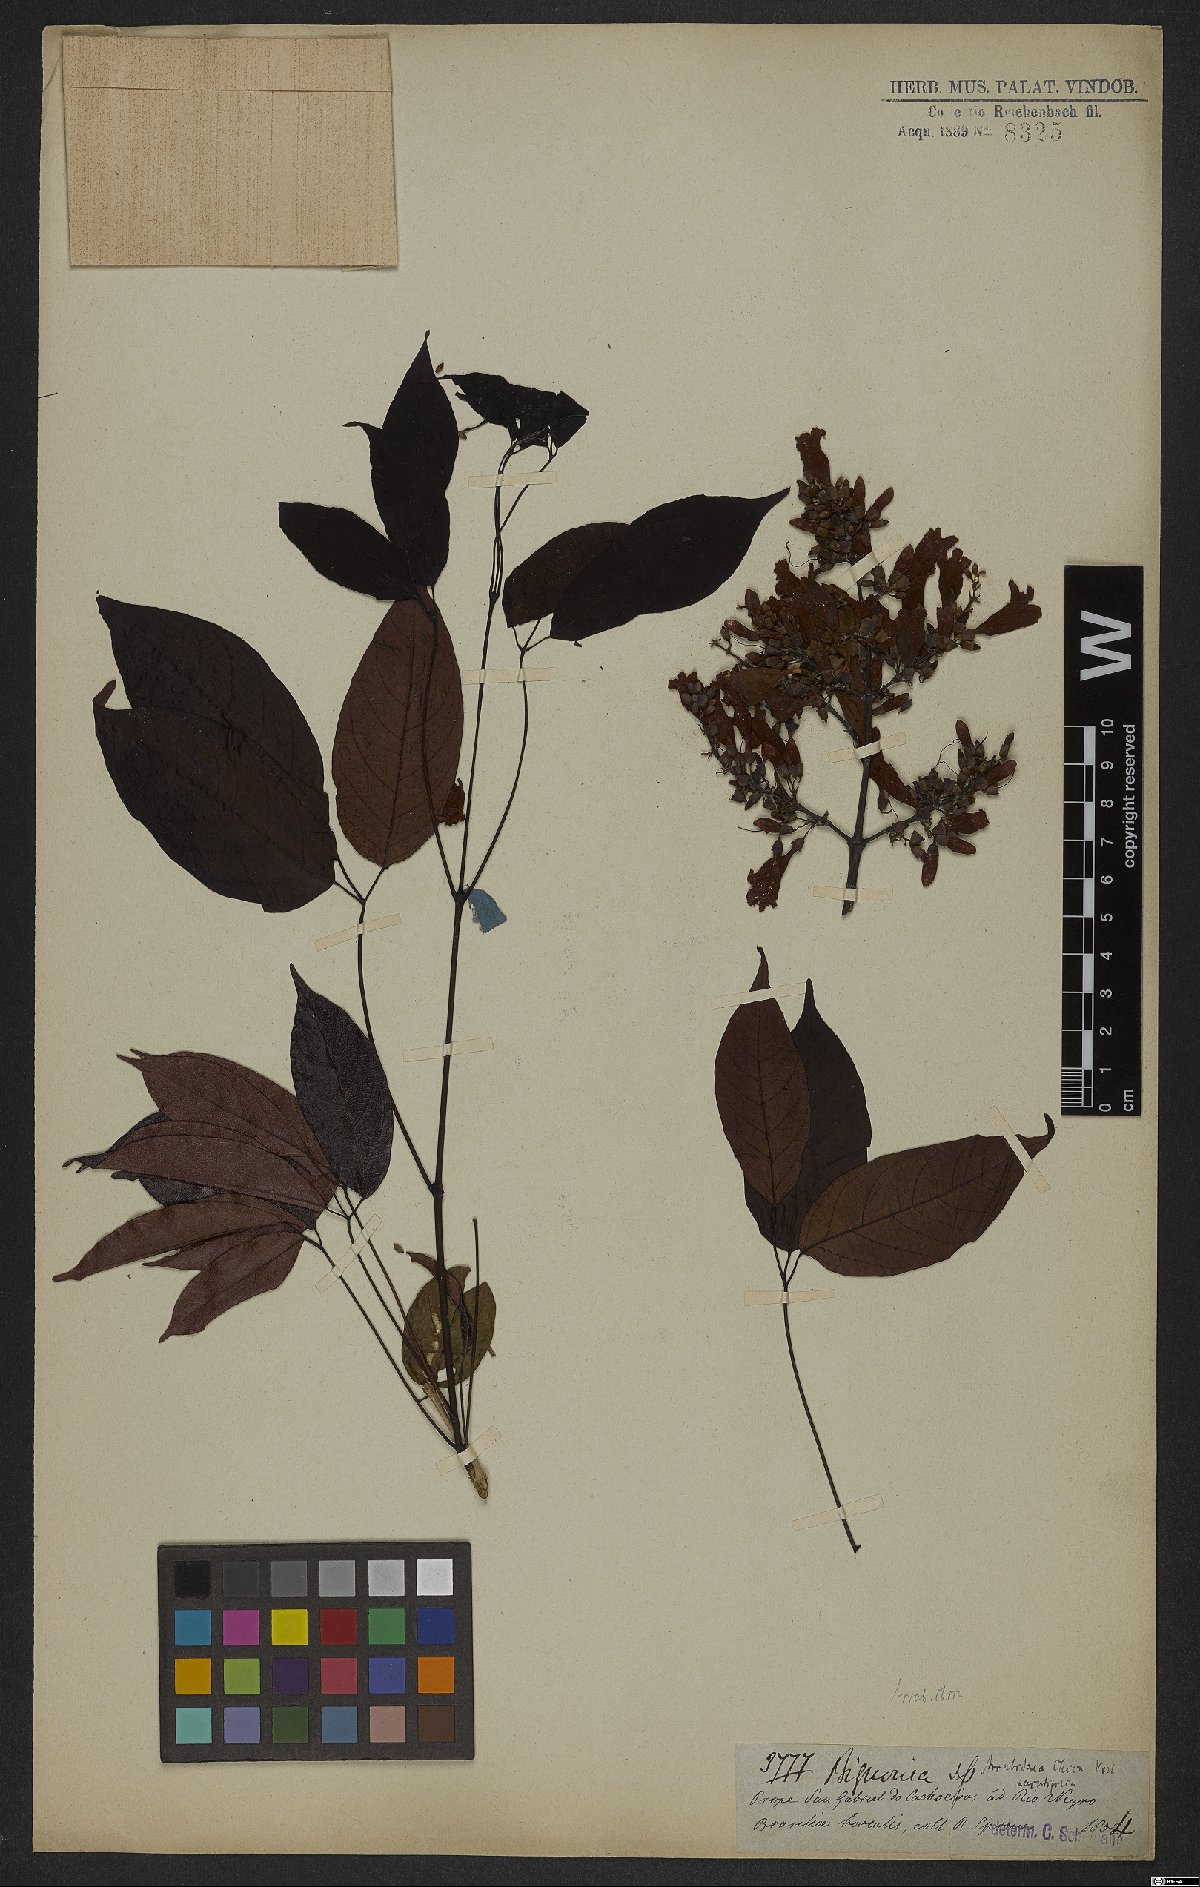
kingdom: Plantae
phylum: Tracheophyta
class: Magnoliopsida
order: Lamiales
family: Bignoniaceae
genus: Fridericia
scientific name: Fridericia chica
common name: Cricketvine
